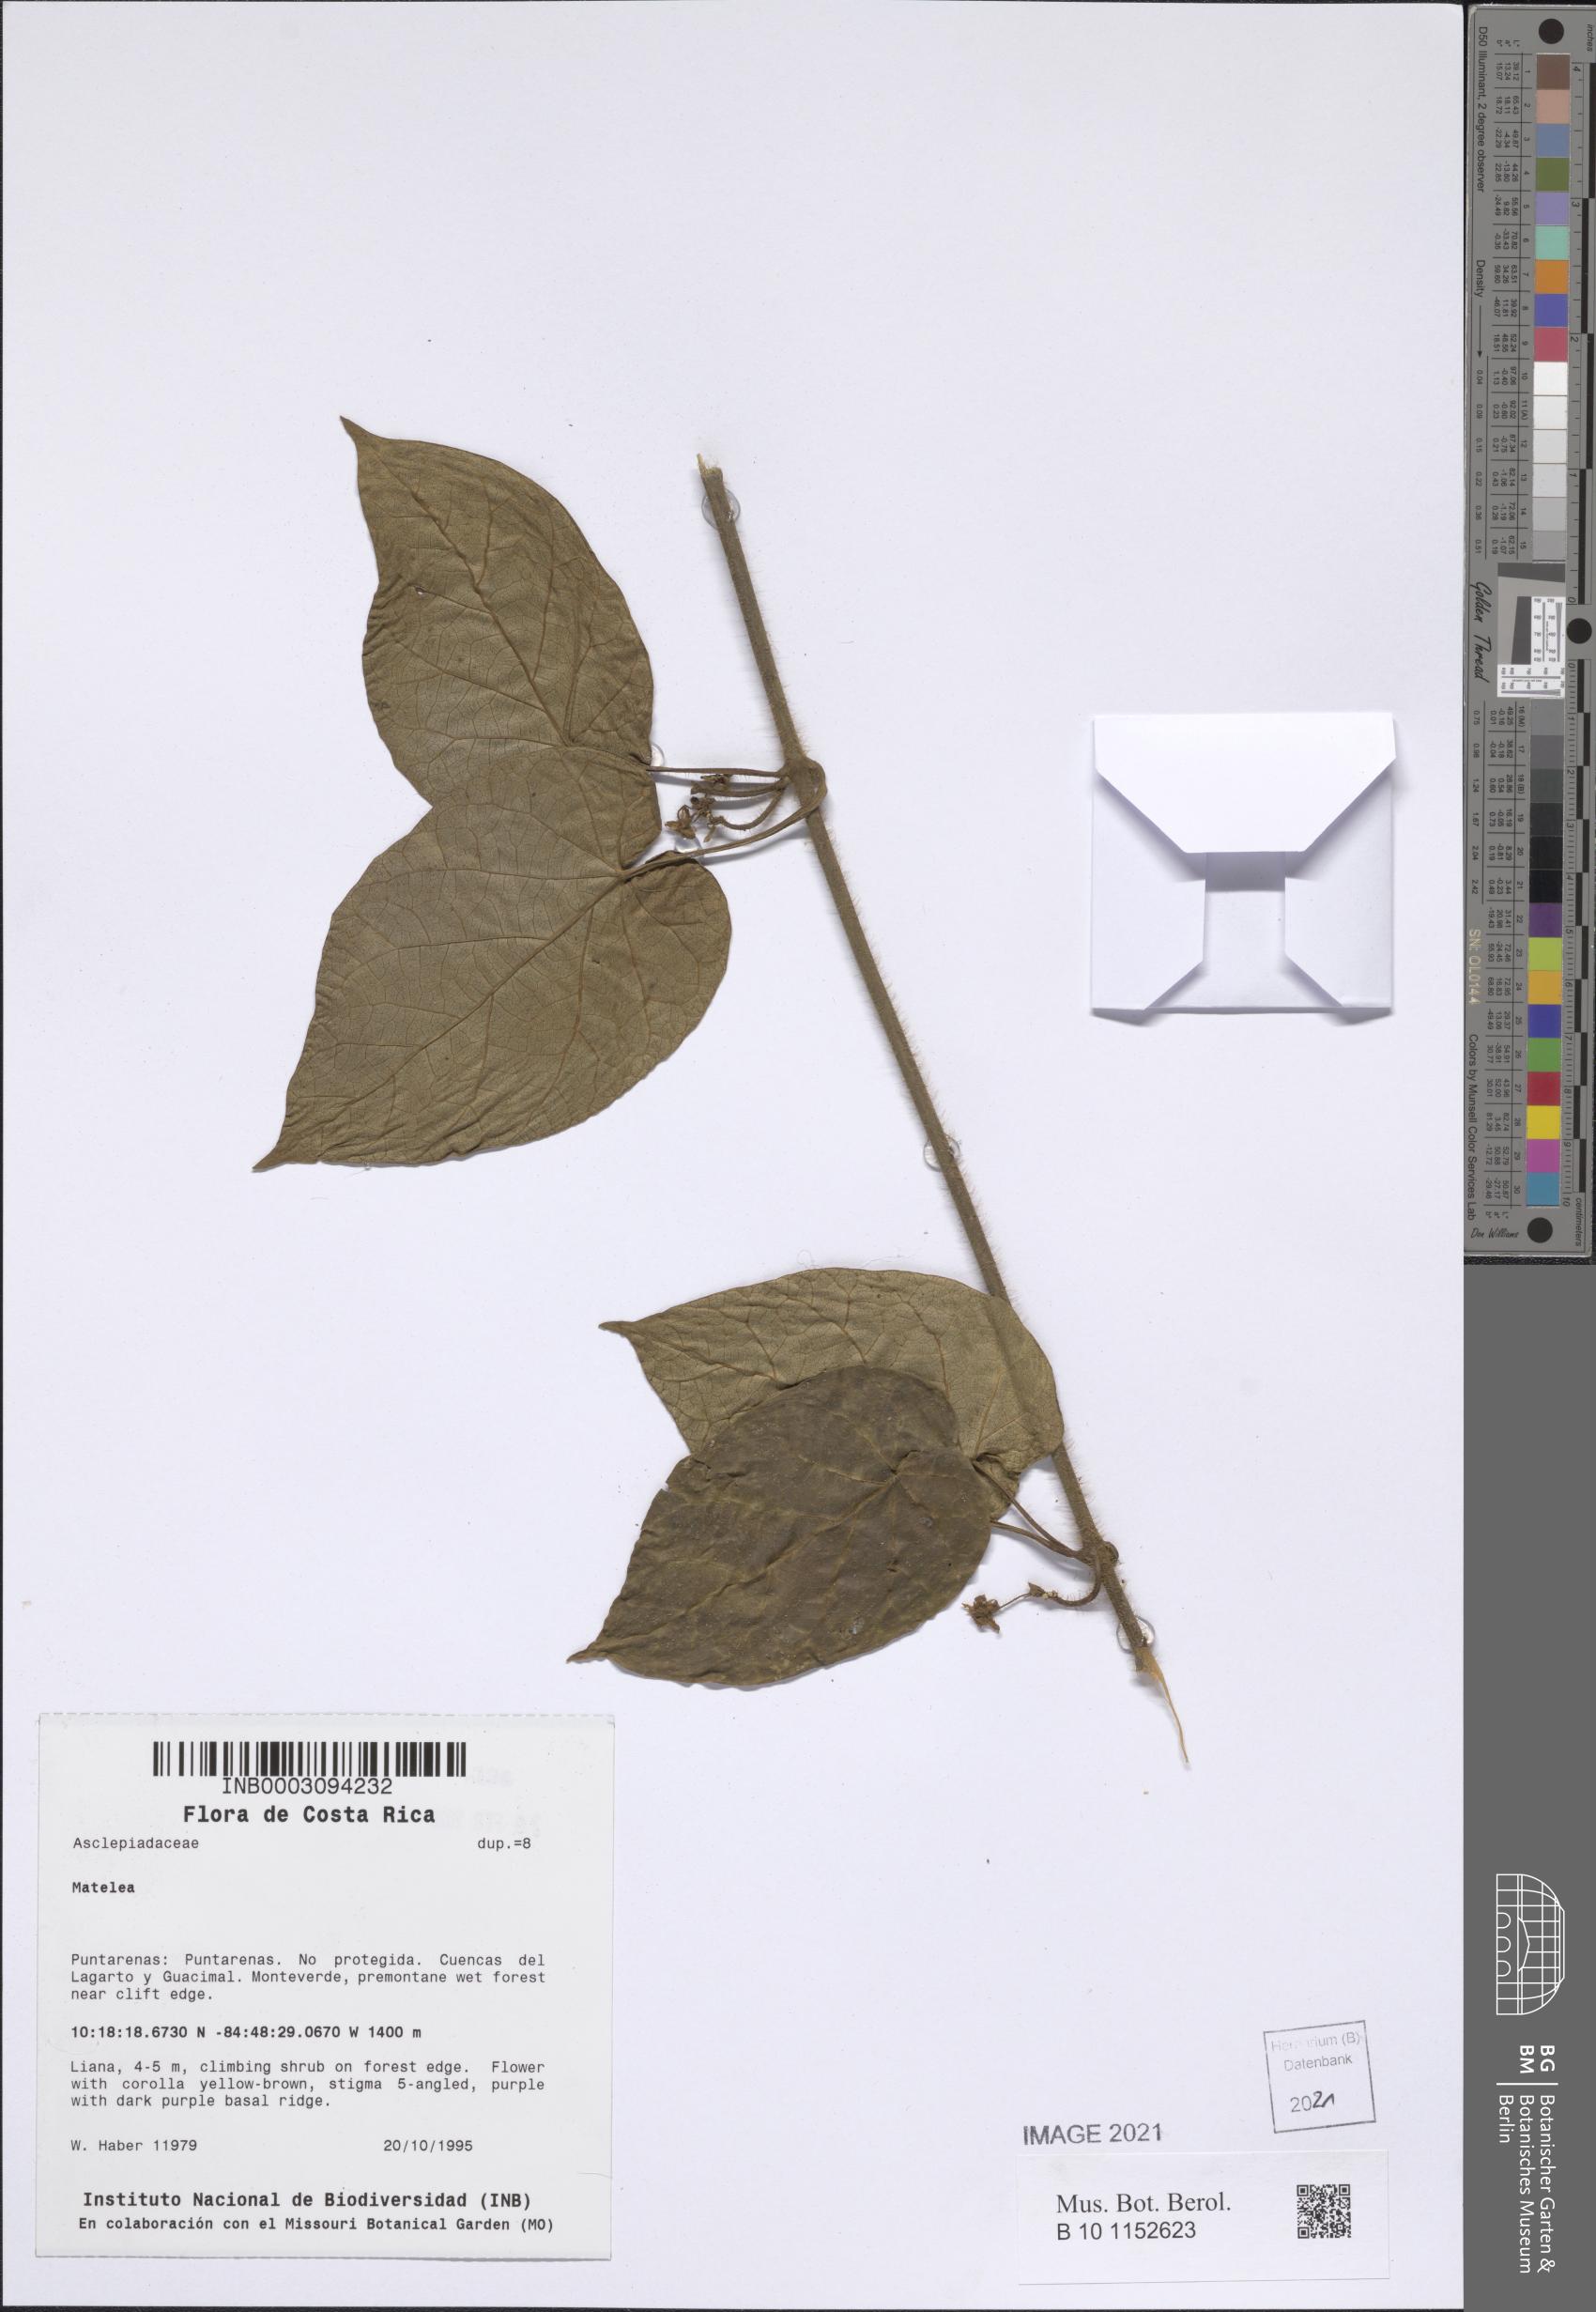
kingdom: Plantae
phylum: Tracheophyta
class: Magnoliopsida
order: Gentianales
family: Apocynaceae
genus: Matelea
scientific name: Matelea haberi
